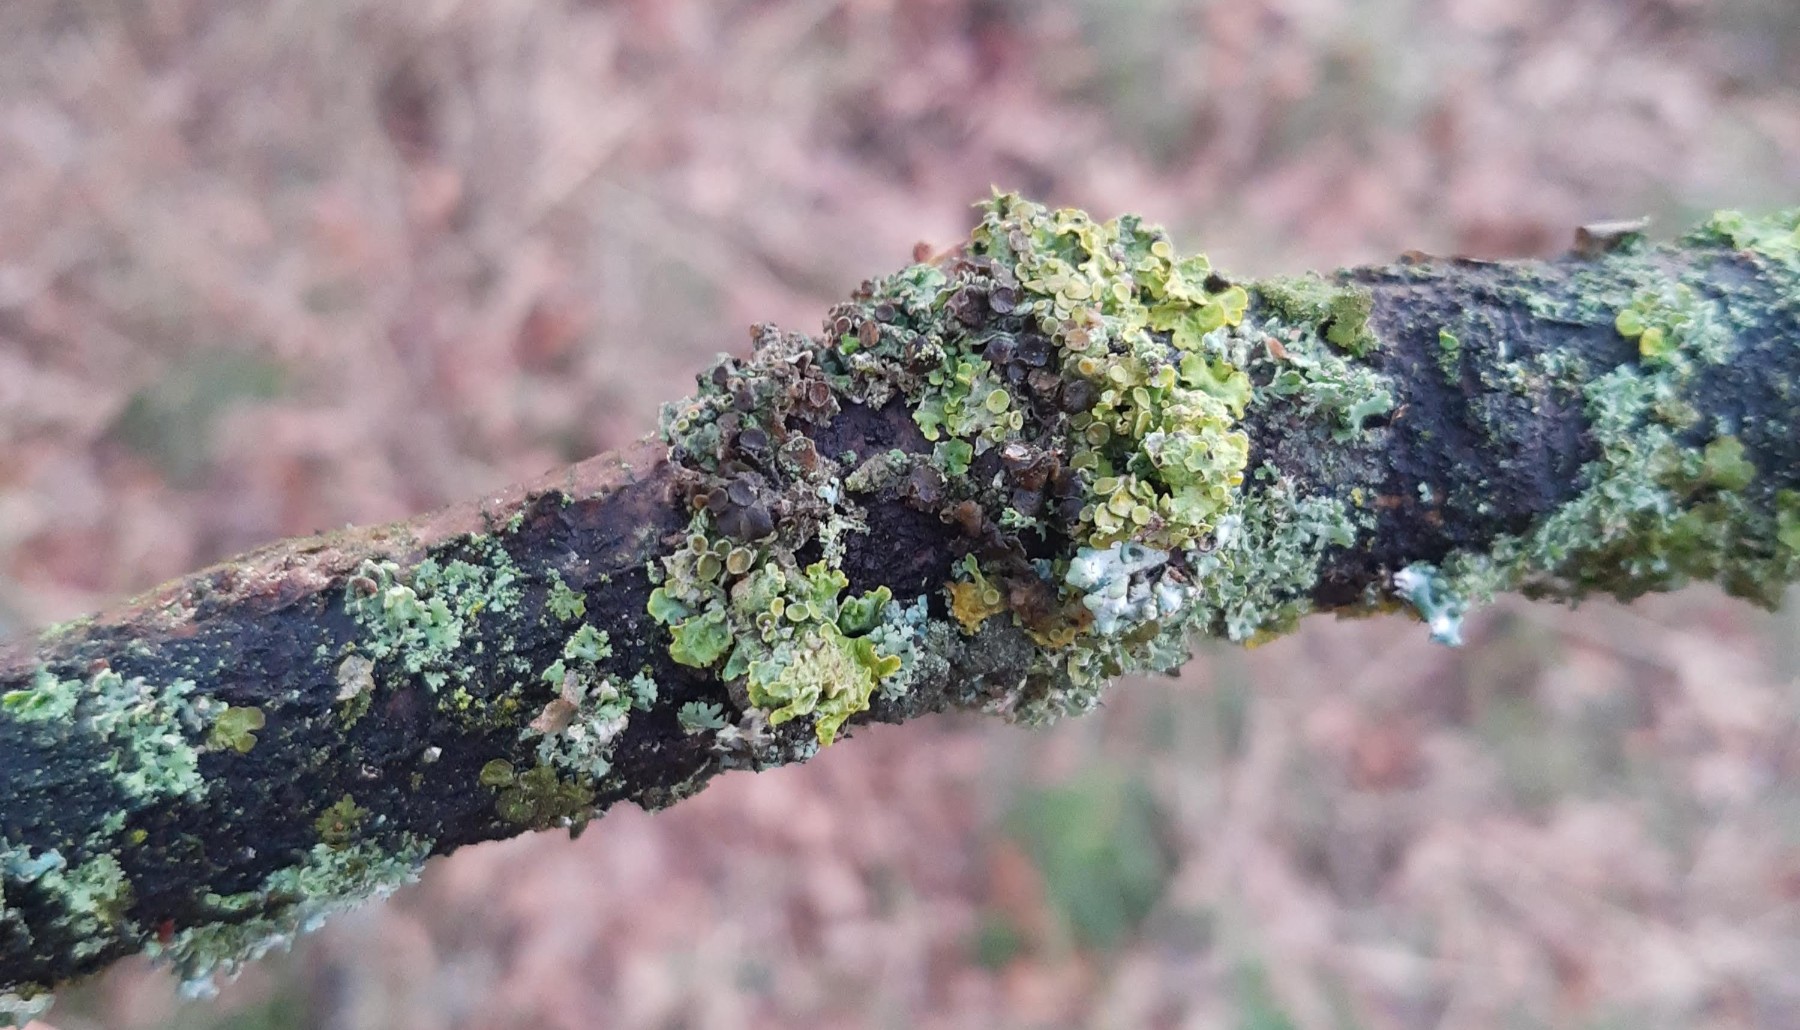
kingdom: Fungi
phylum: Ascomycota
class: Dothideomycetes
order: Mycosphaerellales
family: Teratosphaeriaceae
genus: Xanthoriicola
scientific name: Xanthoriicola physciae
